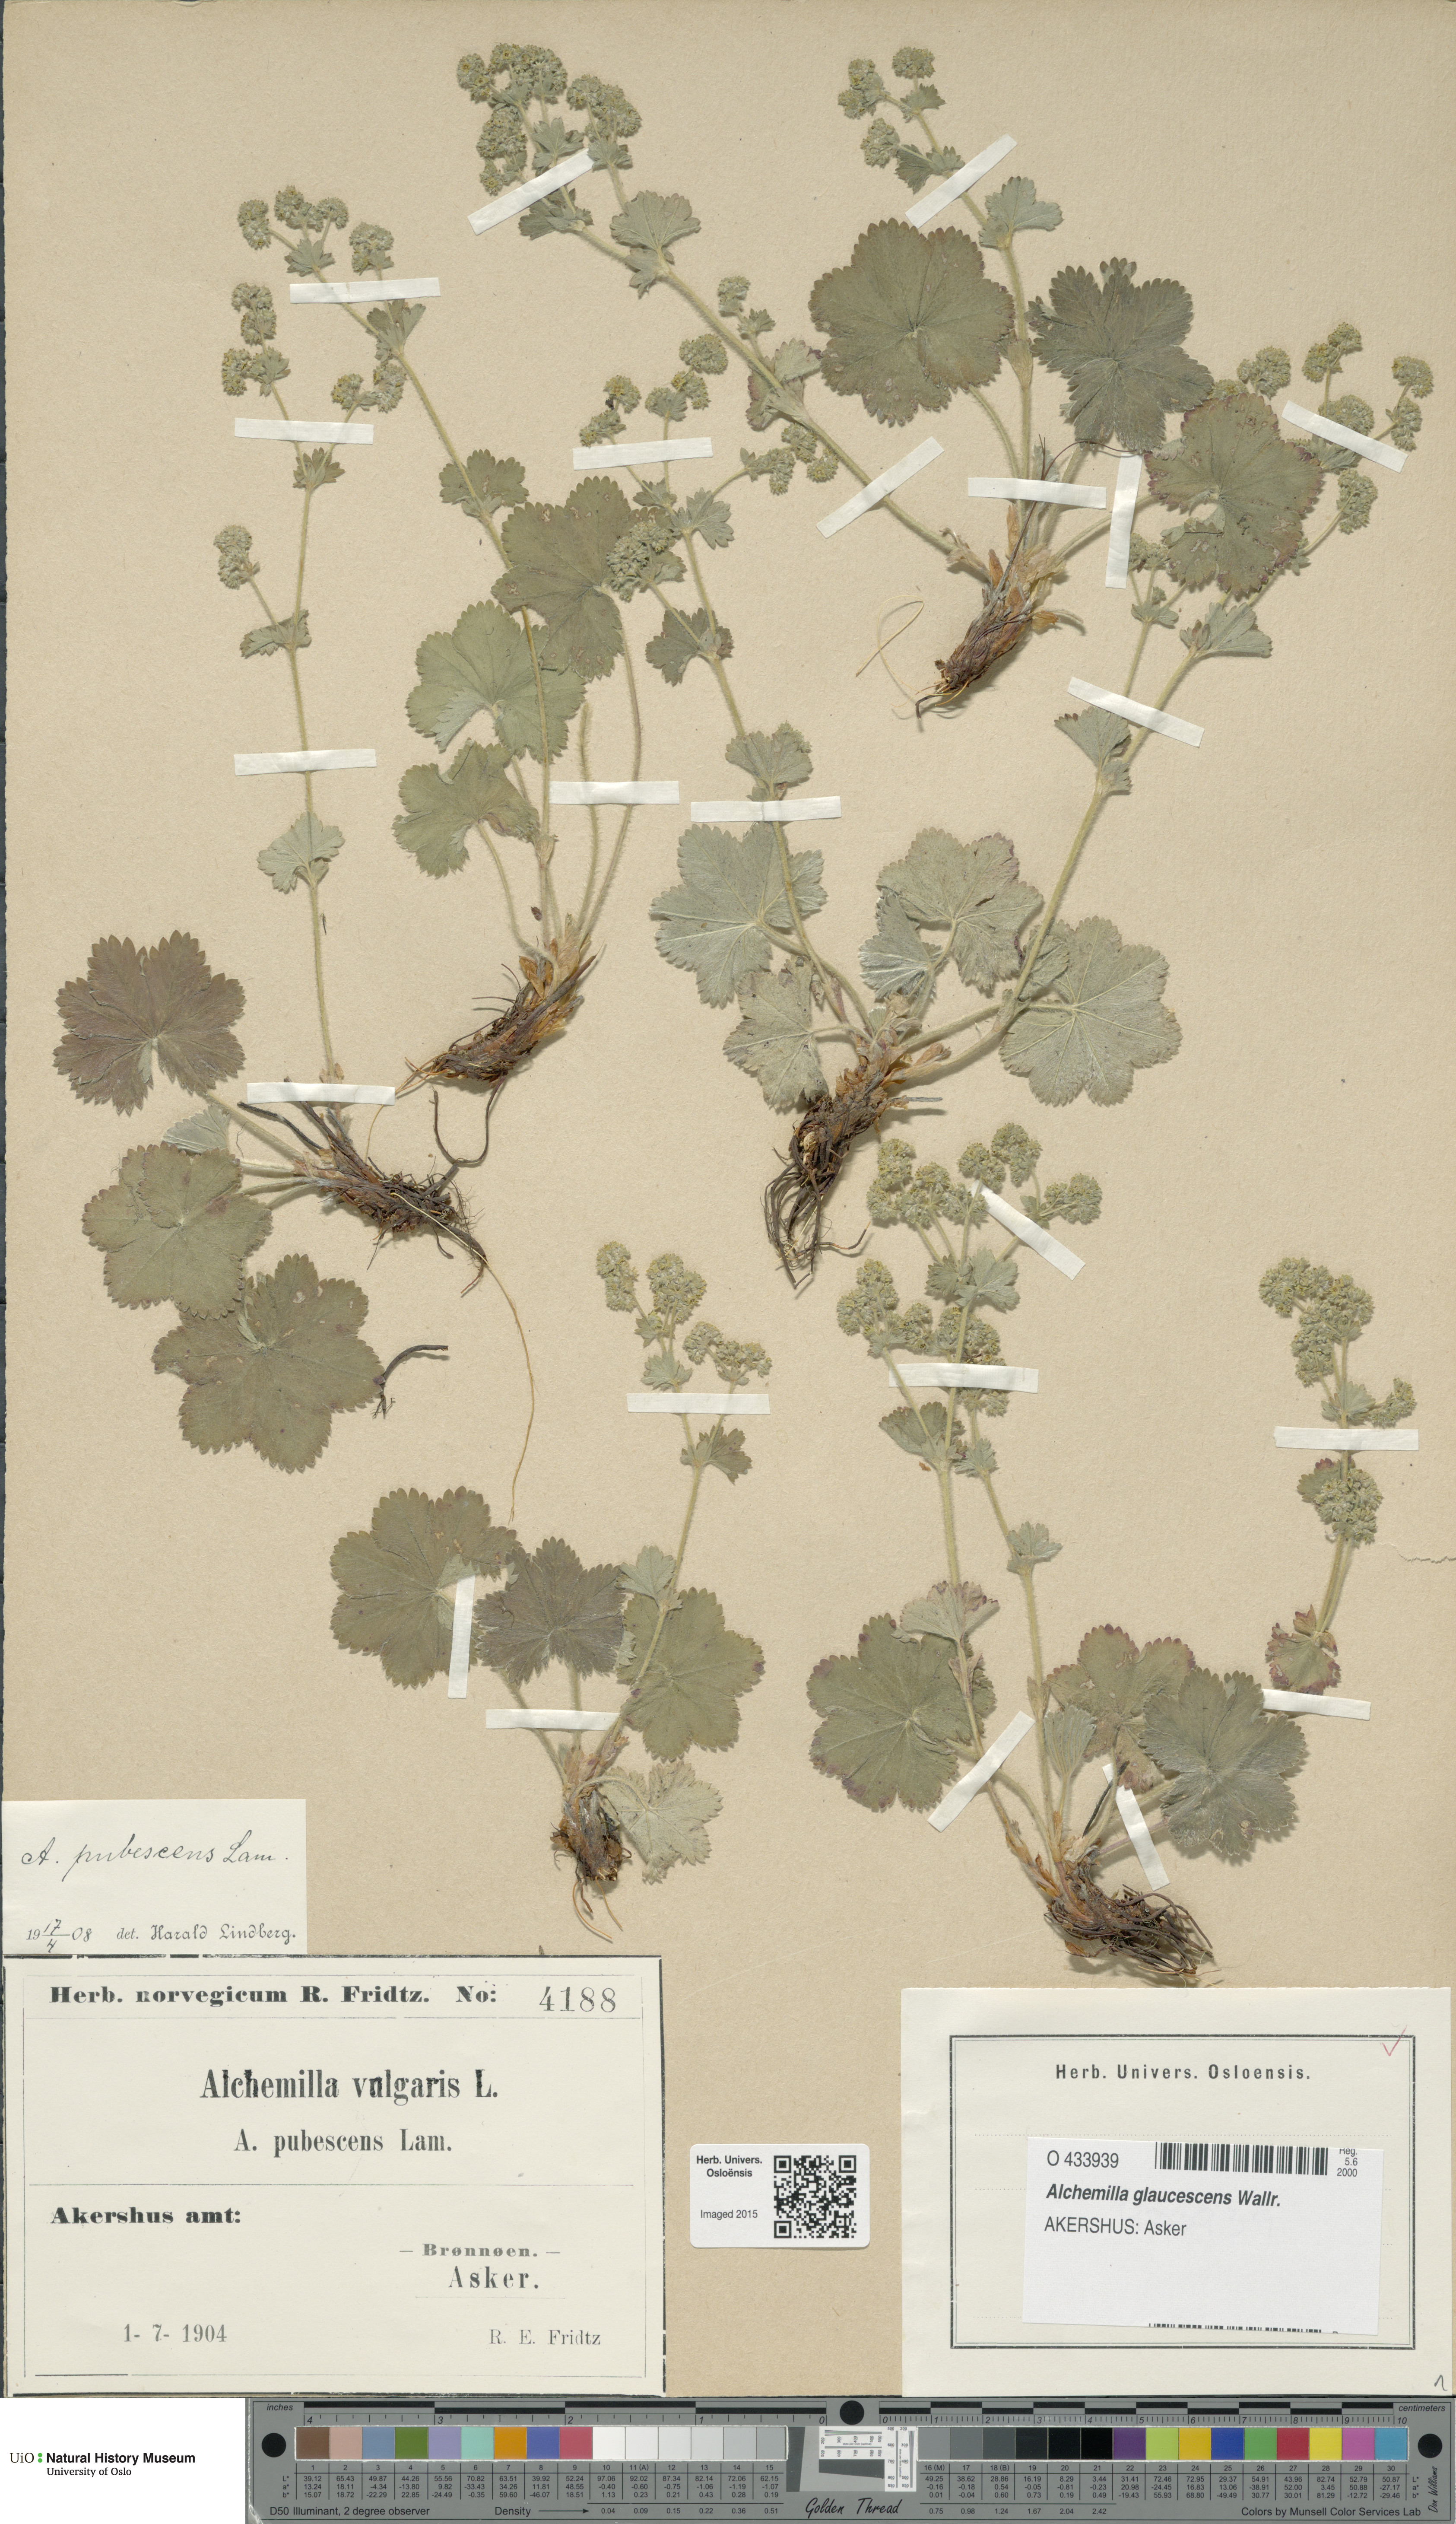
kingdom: Plantae
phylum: Tracheophyta
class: Magnoliopsida
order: Rosales
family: Rosaceae
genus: Alchemilla
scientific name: Alchemilla glaucescens
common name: Silky lady's mantle
